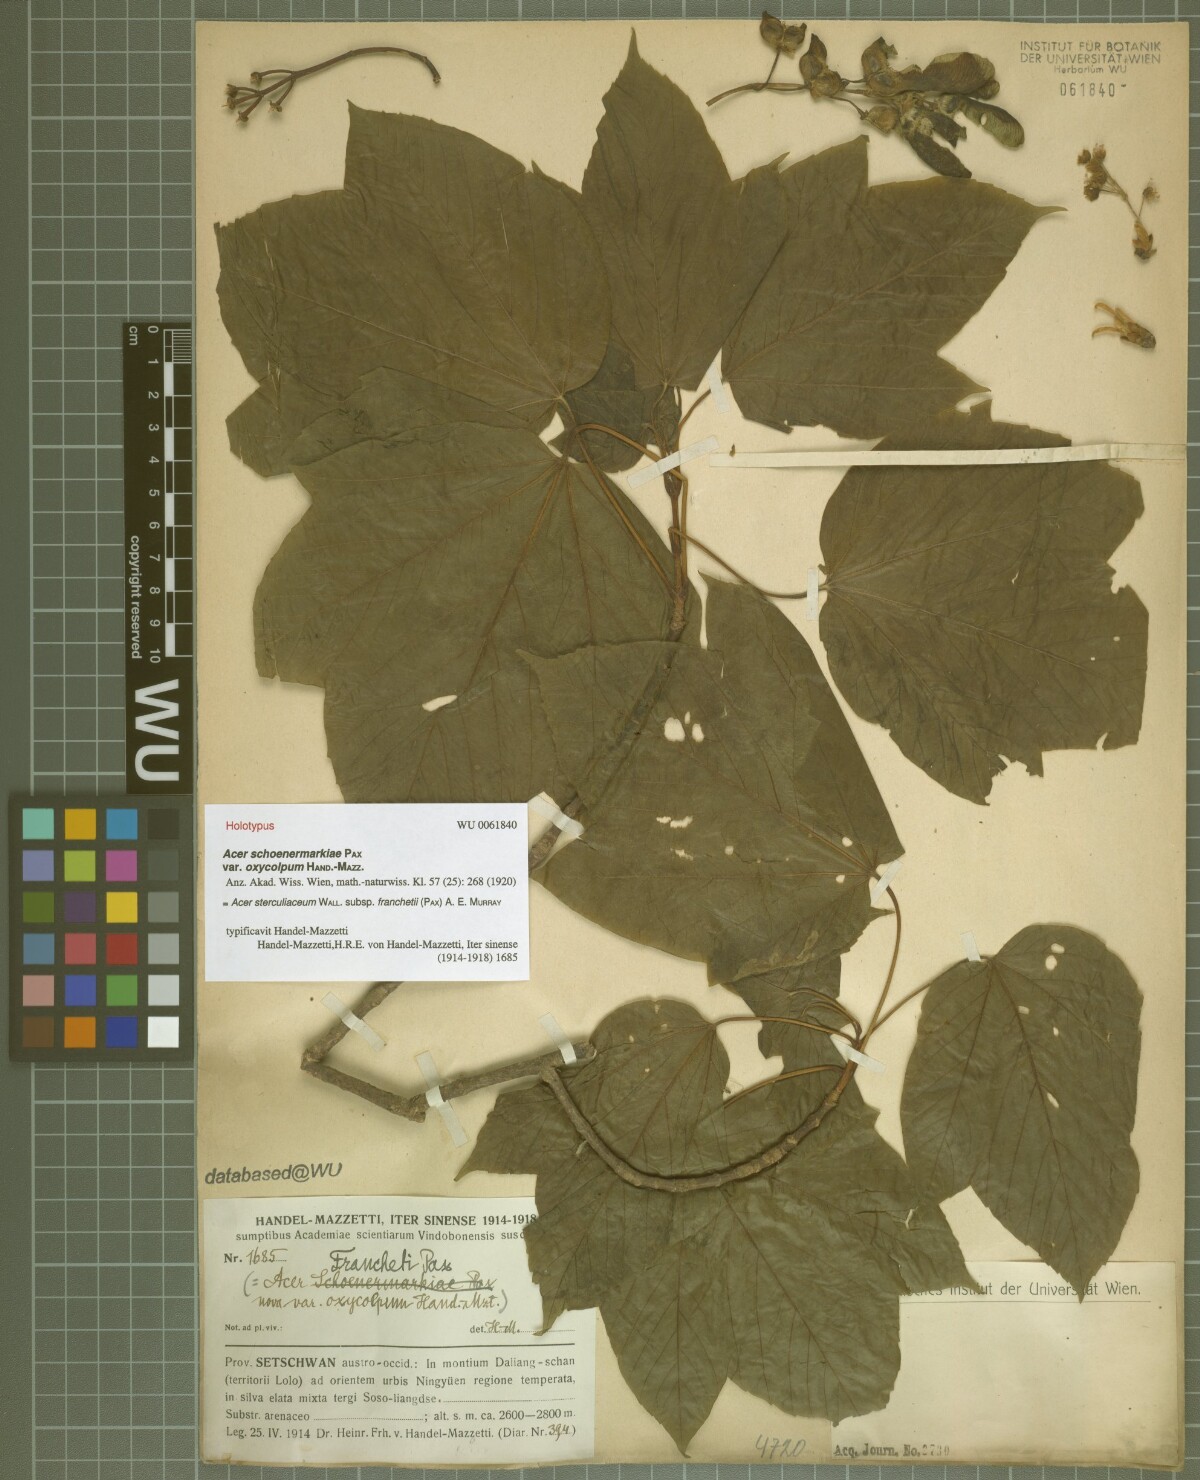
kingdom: Plantae
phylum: Tracheophyta
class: Magnoliopsida
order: Sapindales
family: Sapindaceae
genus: Acer
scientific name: Acer sterculiaceum
